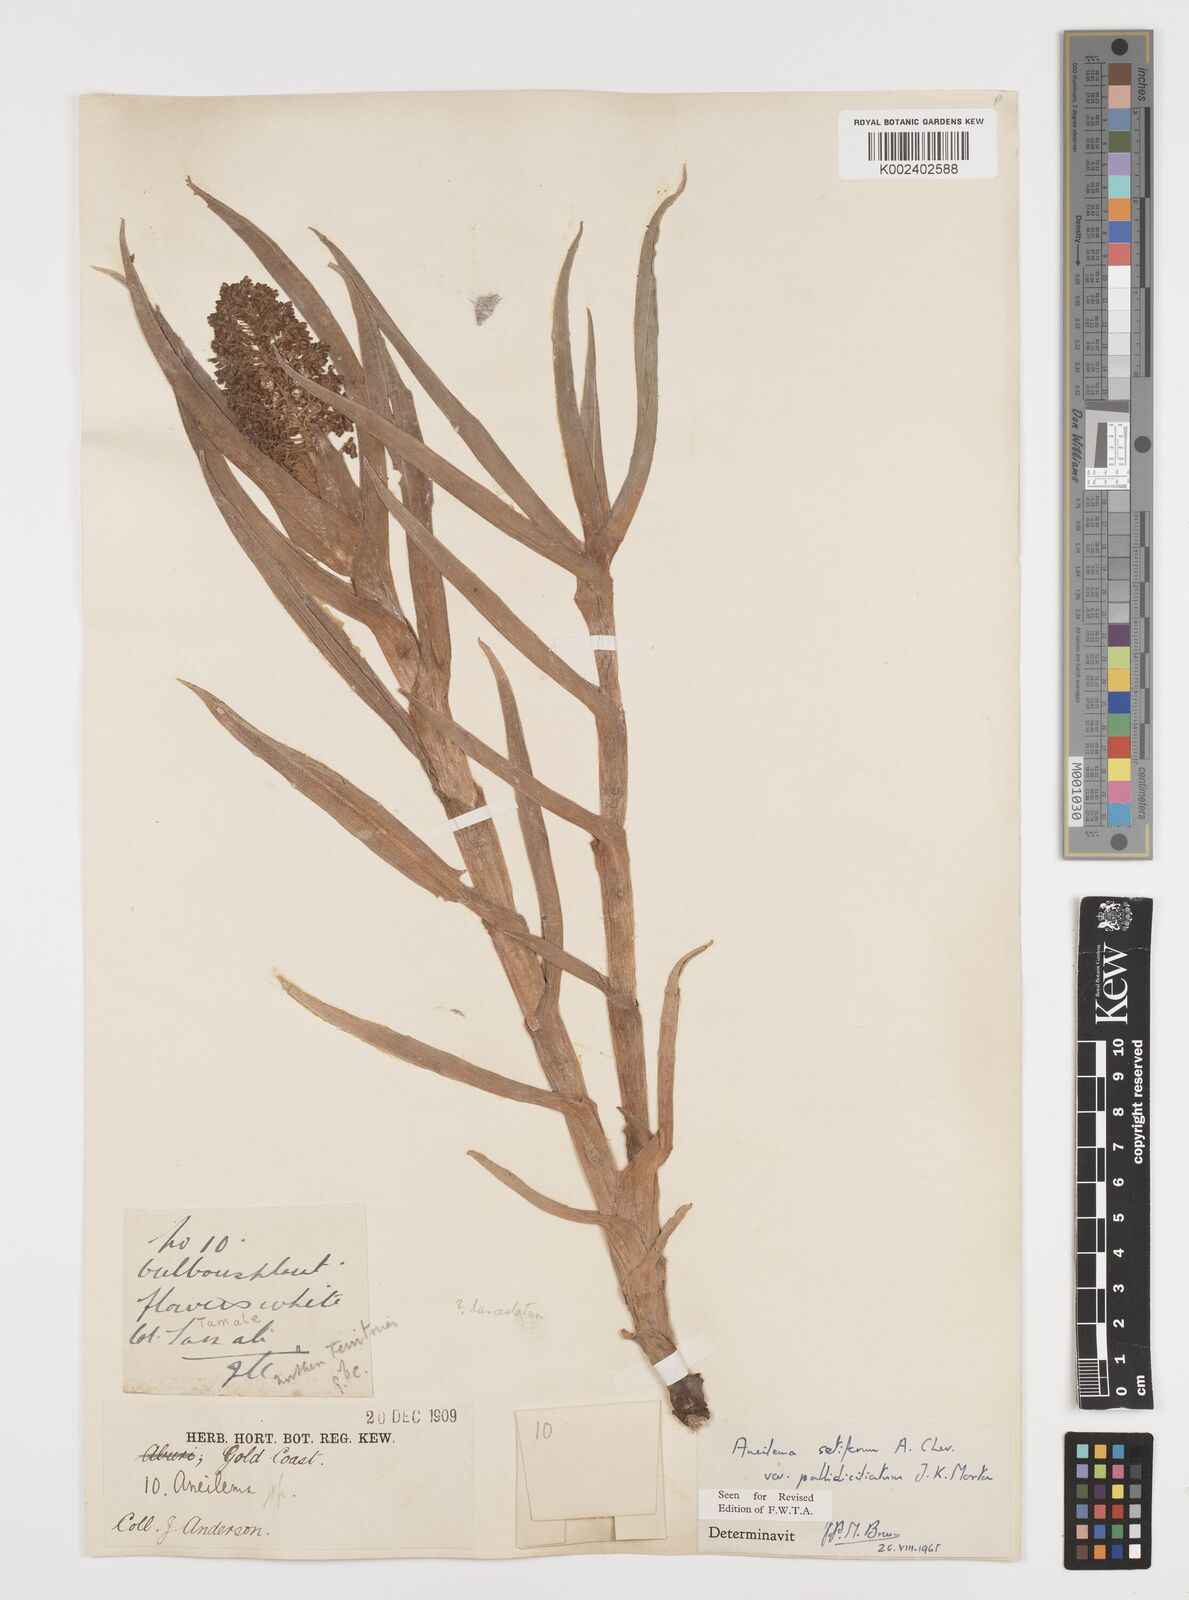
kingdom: Plantae
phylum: Tracheophyta
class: Liliopsida
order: Commelinales
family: Commelinaceae
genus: Aneilema
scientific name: Aneilema setiferum
